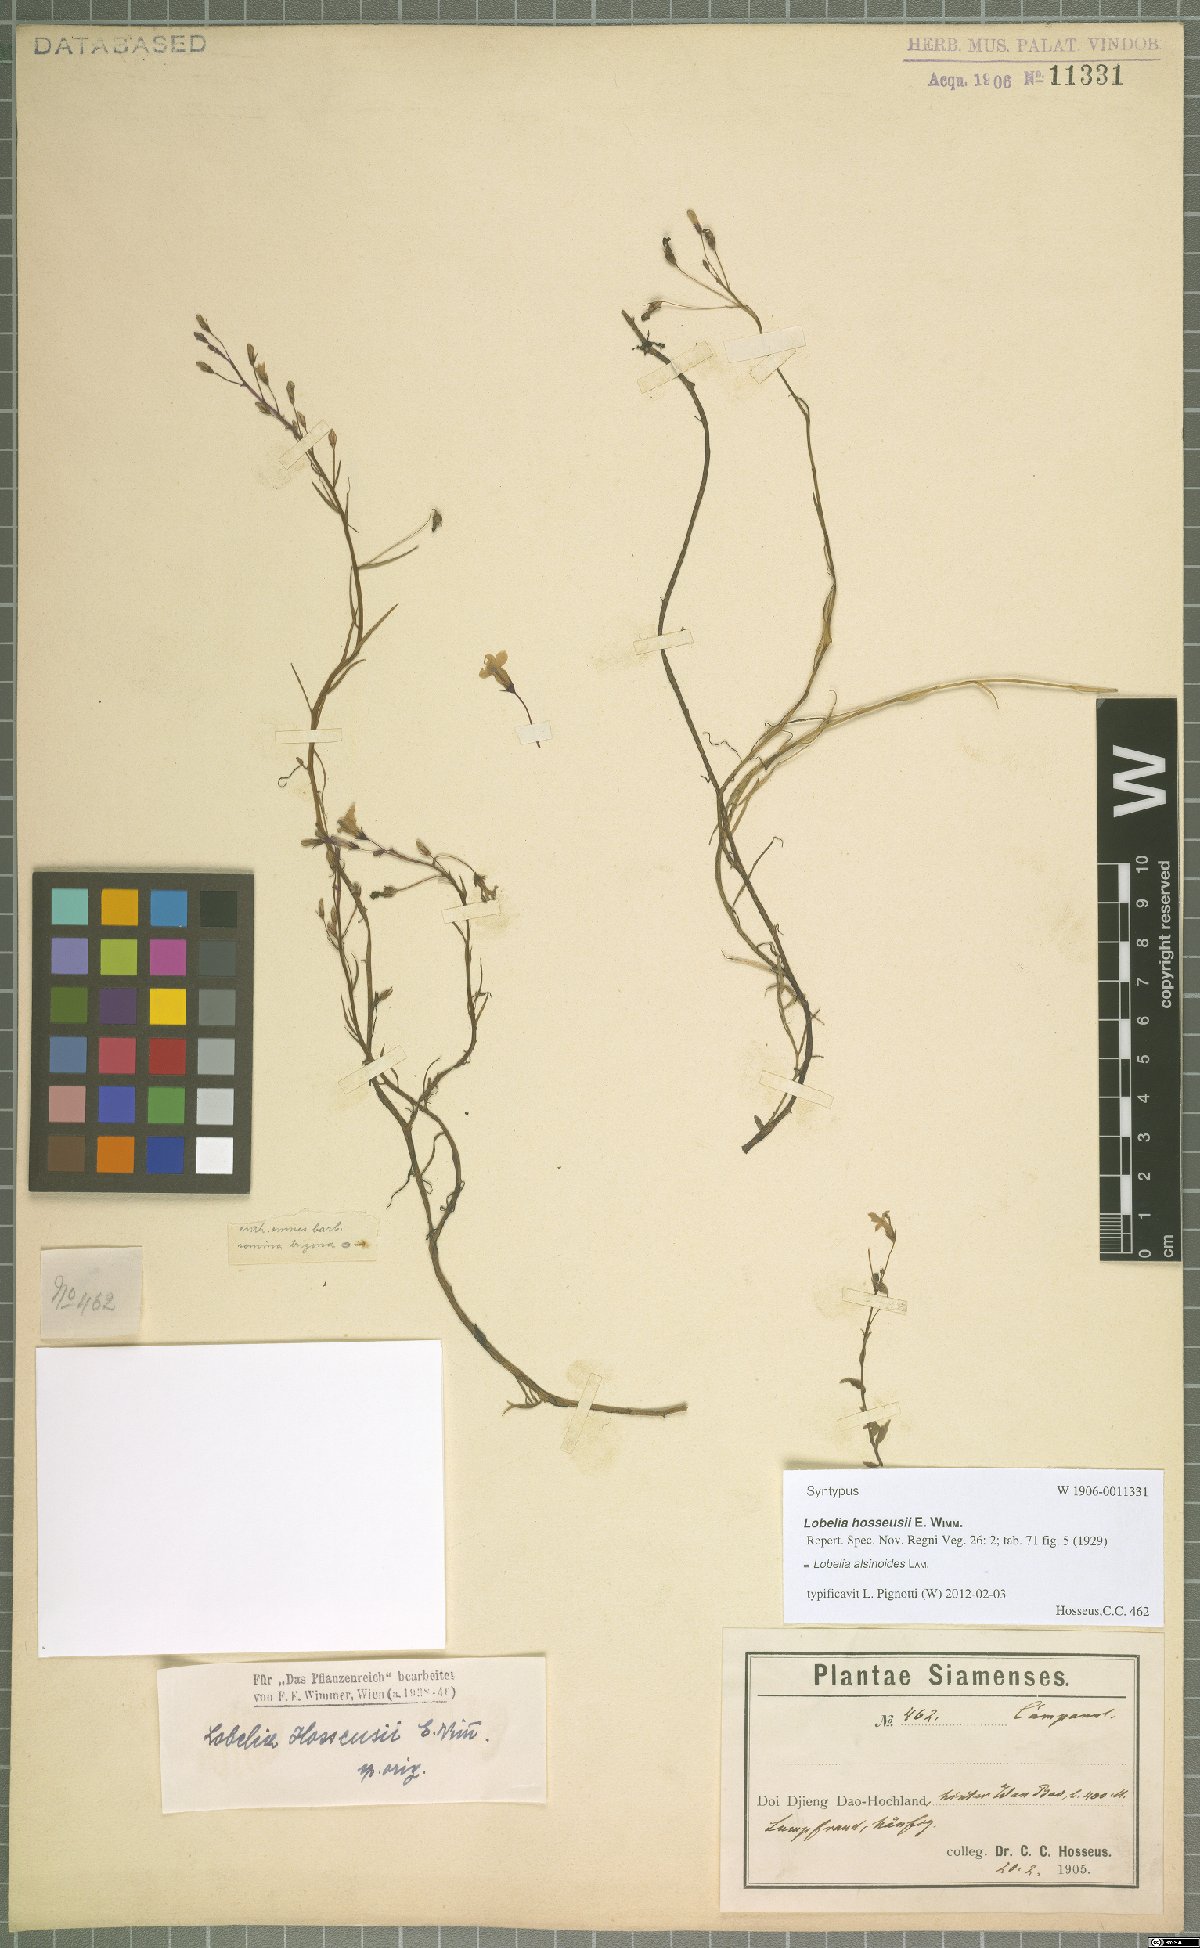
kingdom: Plantae
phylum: Tracheophyta
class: Magnoliopsida
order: Asterales
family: Campanulaceae
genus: Lobelia
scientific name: Lobelia alsinoides
